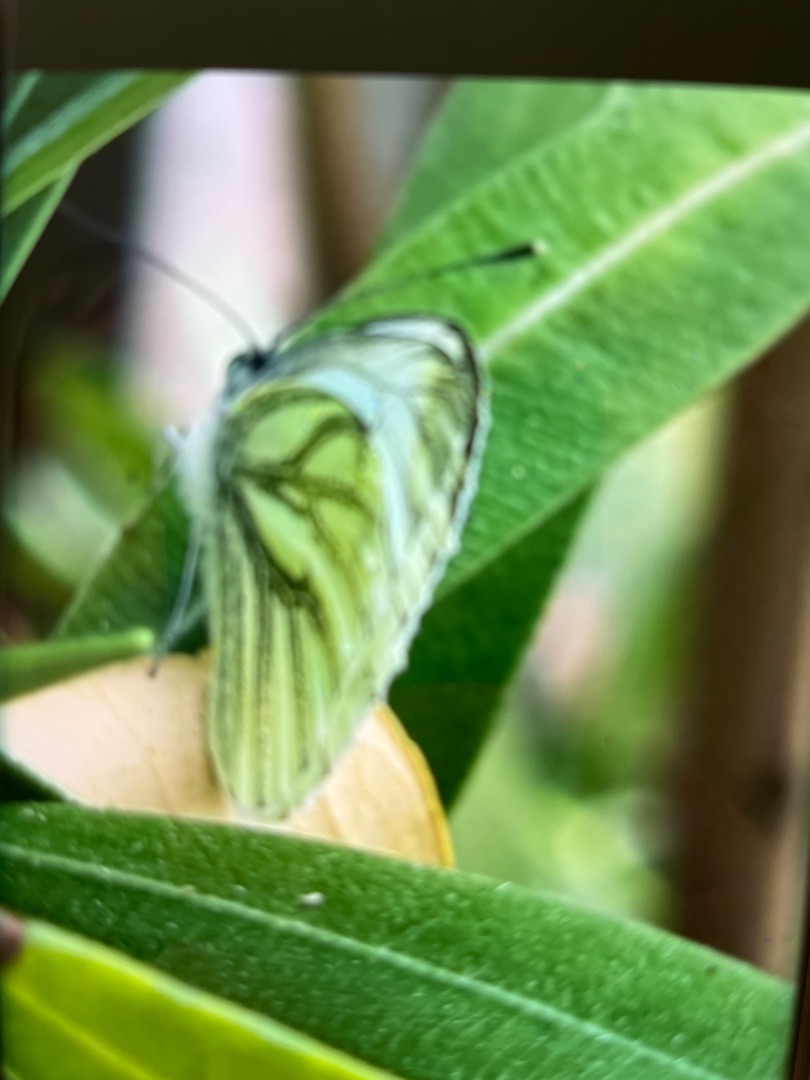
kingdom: Animalia
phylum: Arthropoda
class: Insecta
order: Lepidoptera
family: Pieridae
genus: Pieris
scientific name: Pieris napi
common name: Grønåret kålsommerfugl
